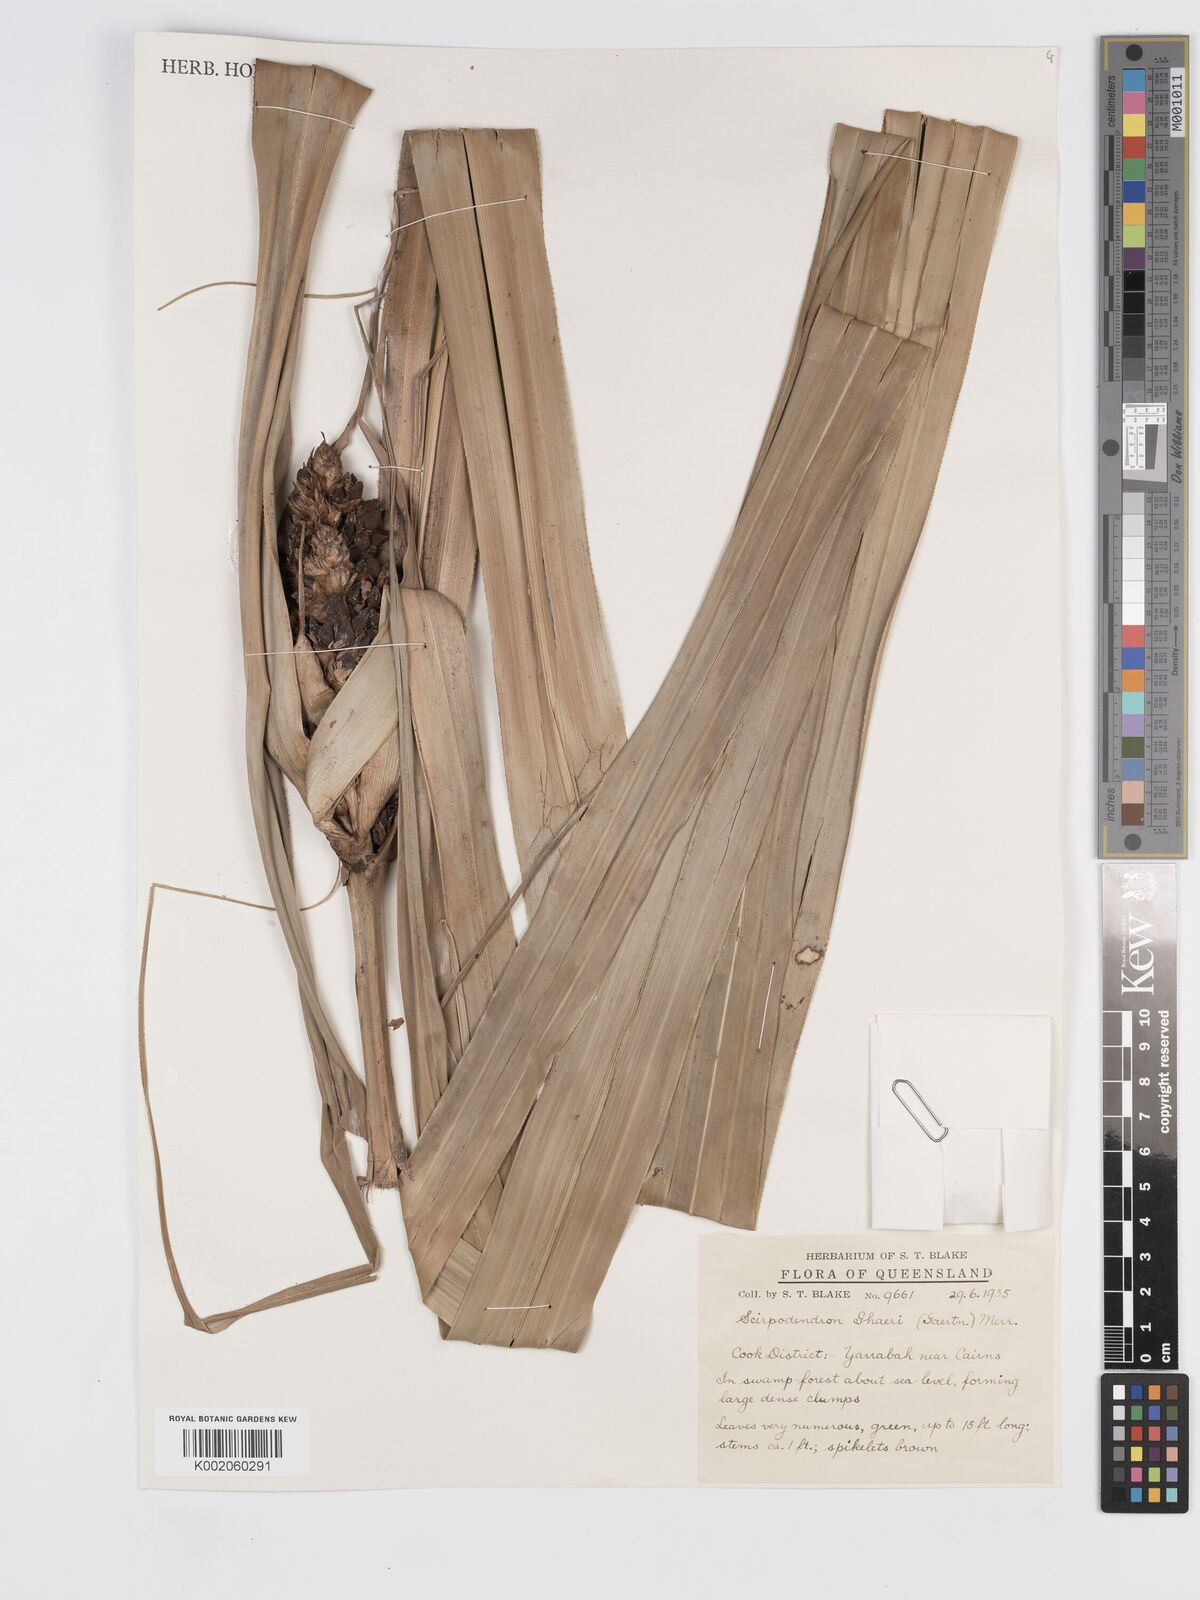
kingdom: Plantae
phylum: Tracheophyta
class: Liliopsida
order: Poales
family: Cyperaceae
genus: Scirpodendron
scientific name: Scirpodendron ghaeri
